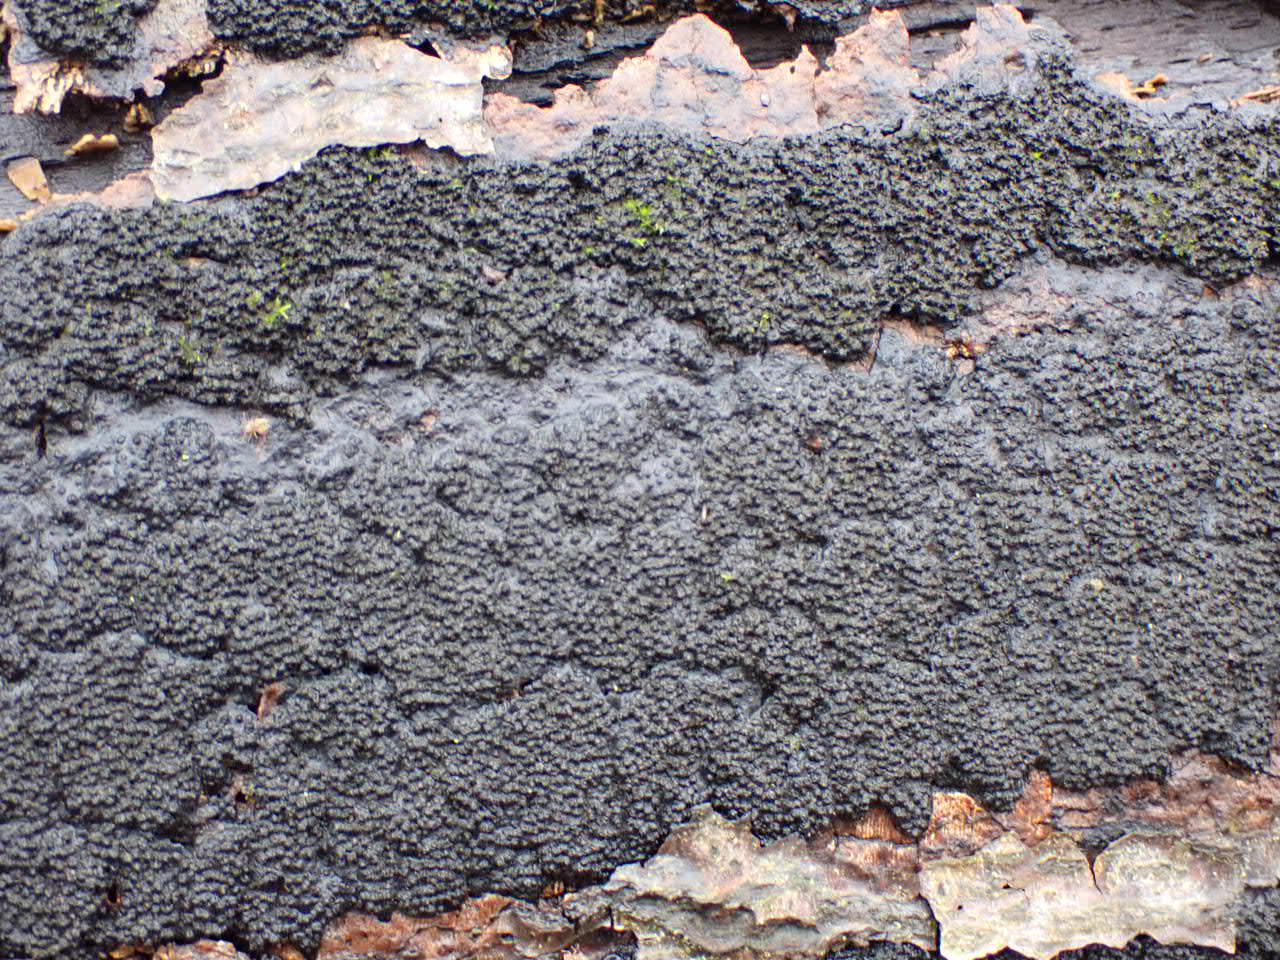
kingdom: Fungi
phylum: Ascomycota
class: Sordariomycetes
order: Xylariales
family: Diatrypaceae
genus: Eutypa
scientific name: Eutypa spinosa
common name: grov kulskorpe
